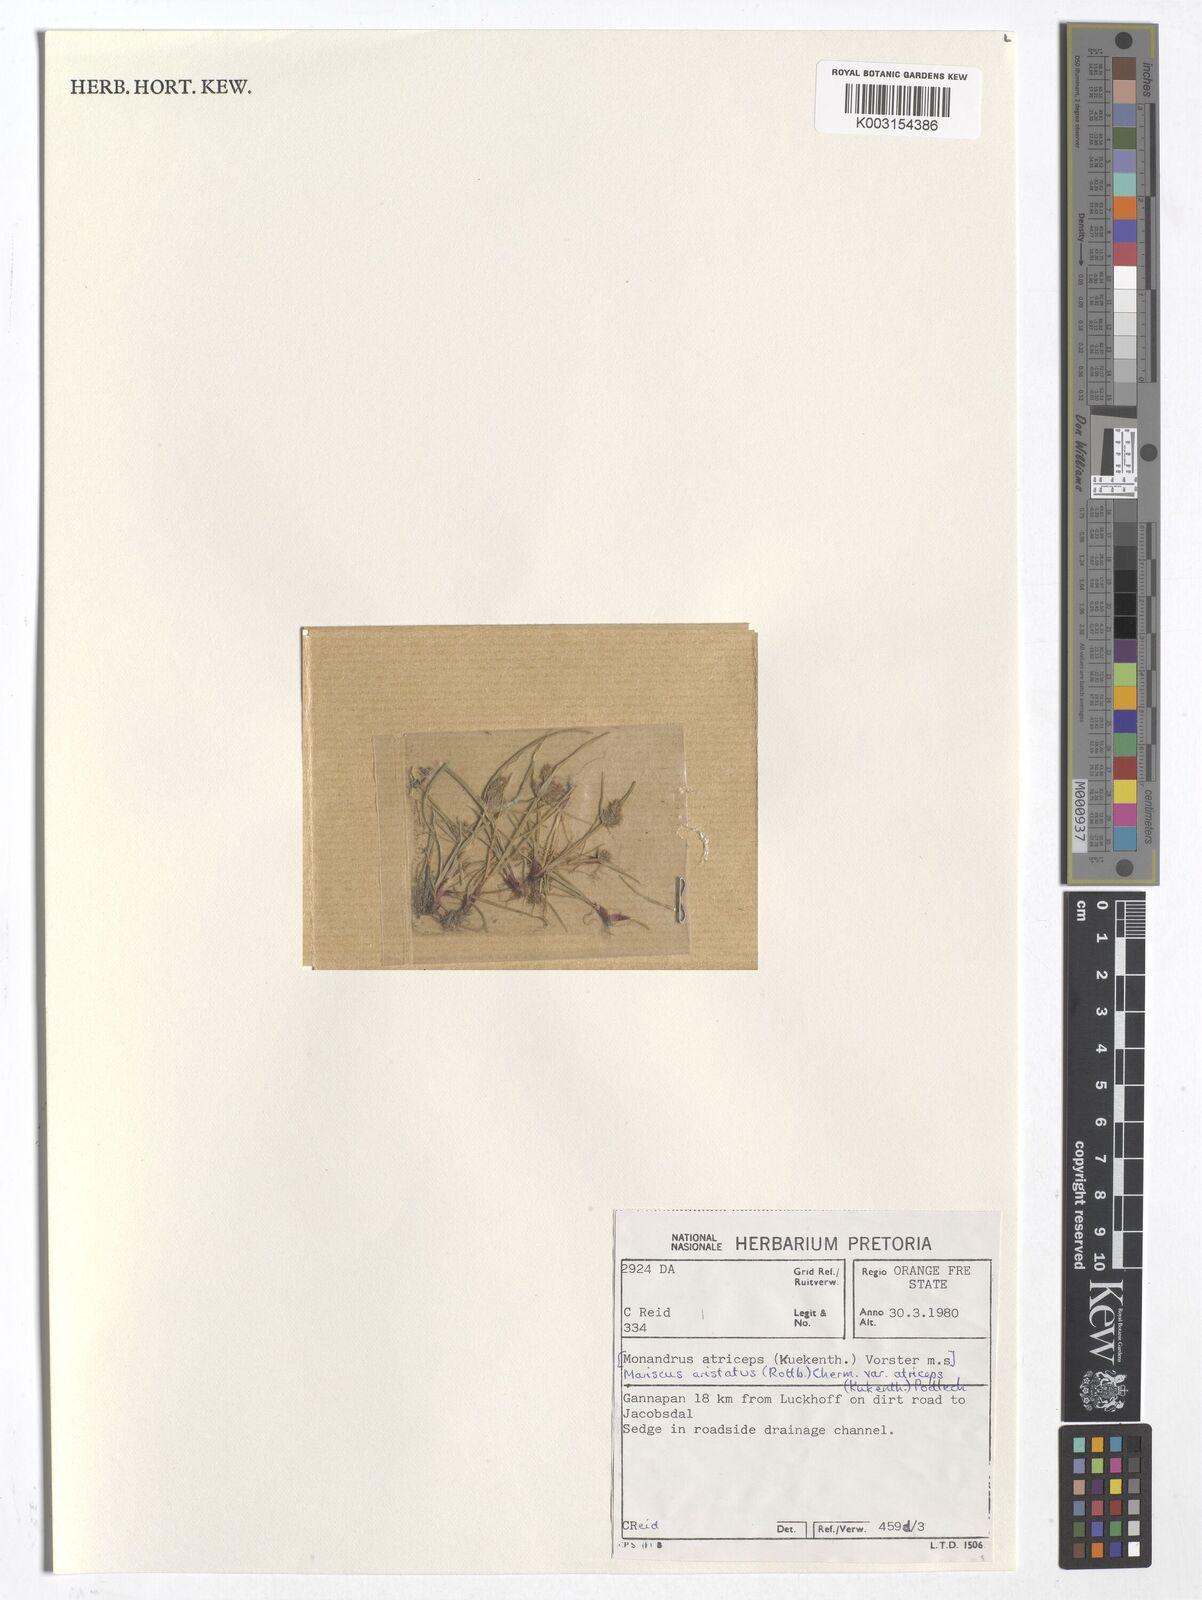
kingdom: Plantae
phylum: Tracheophyta
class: Liliopsida
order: Poales
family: Cyperaceae
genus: Cyperus
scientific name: Cyperus squarrosus
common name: Awned cyperus
